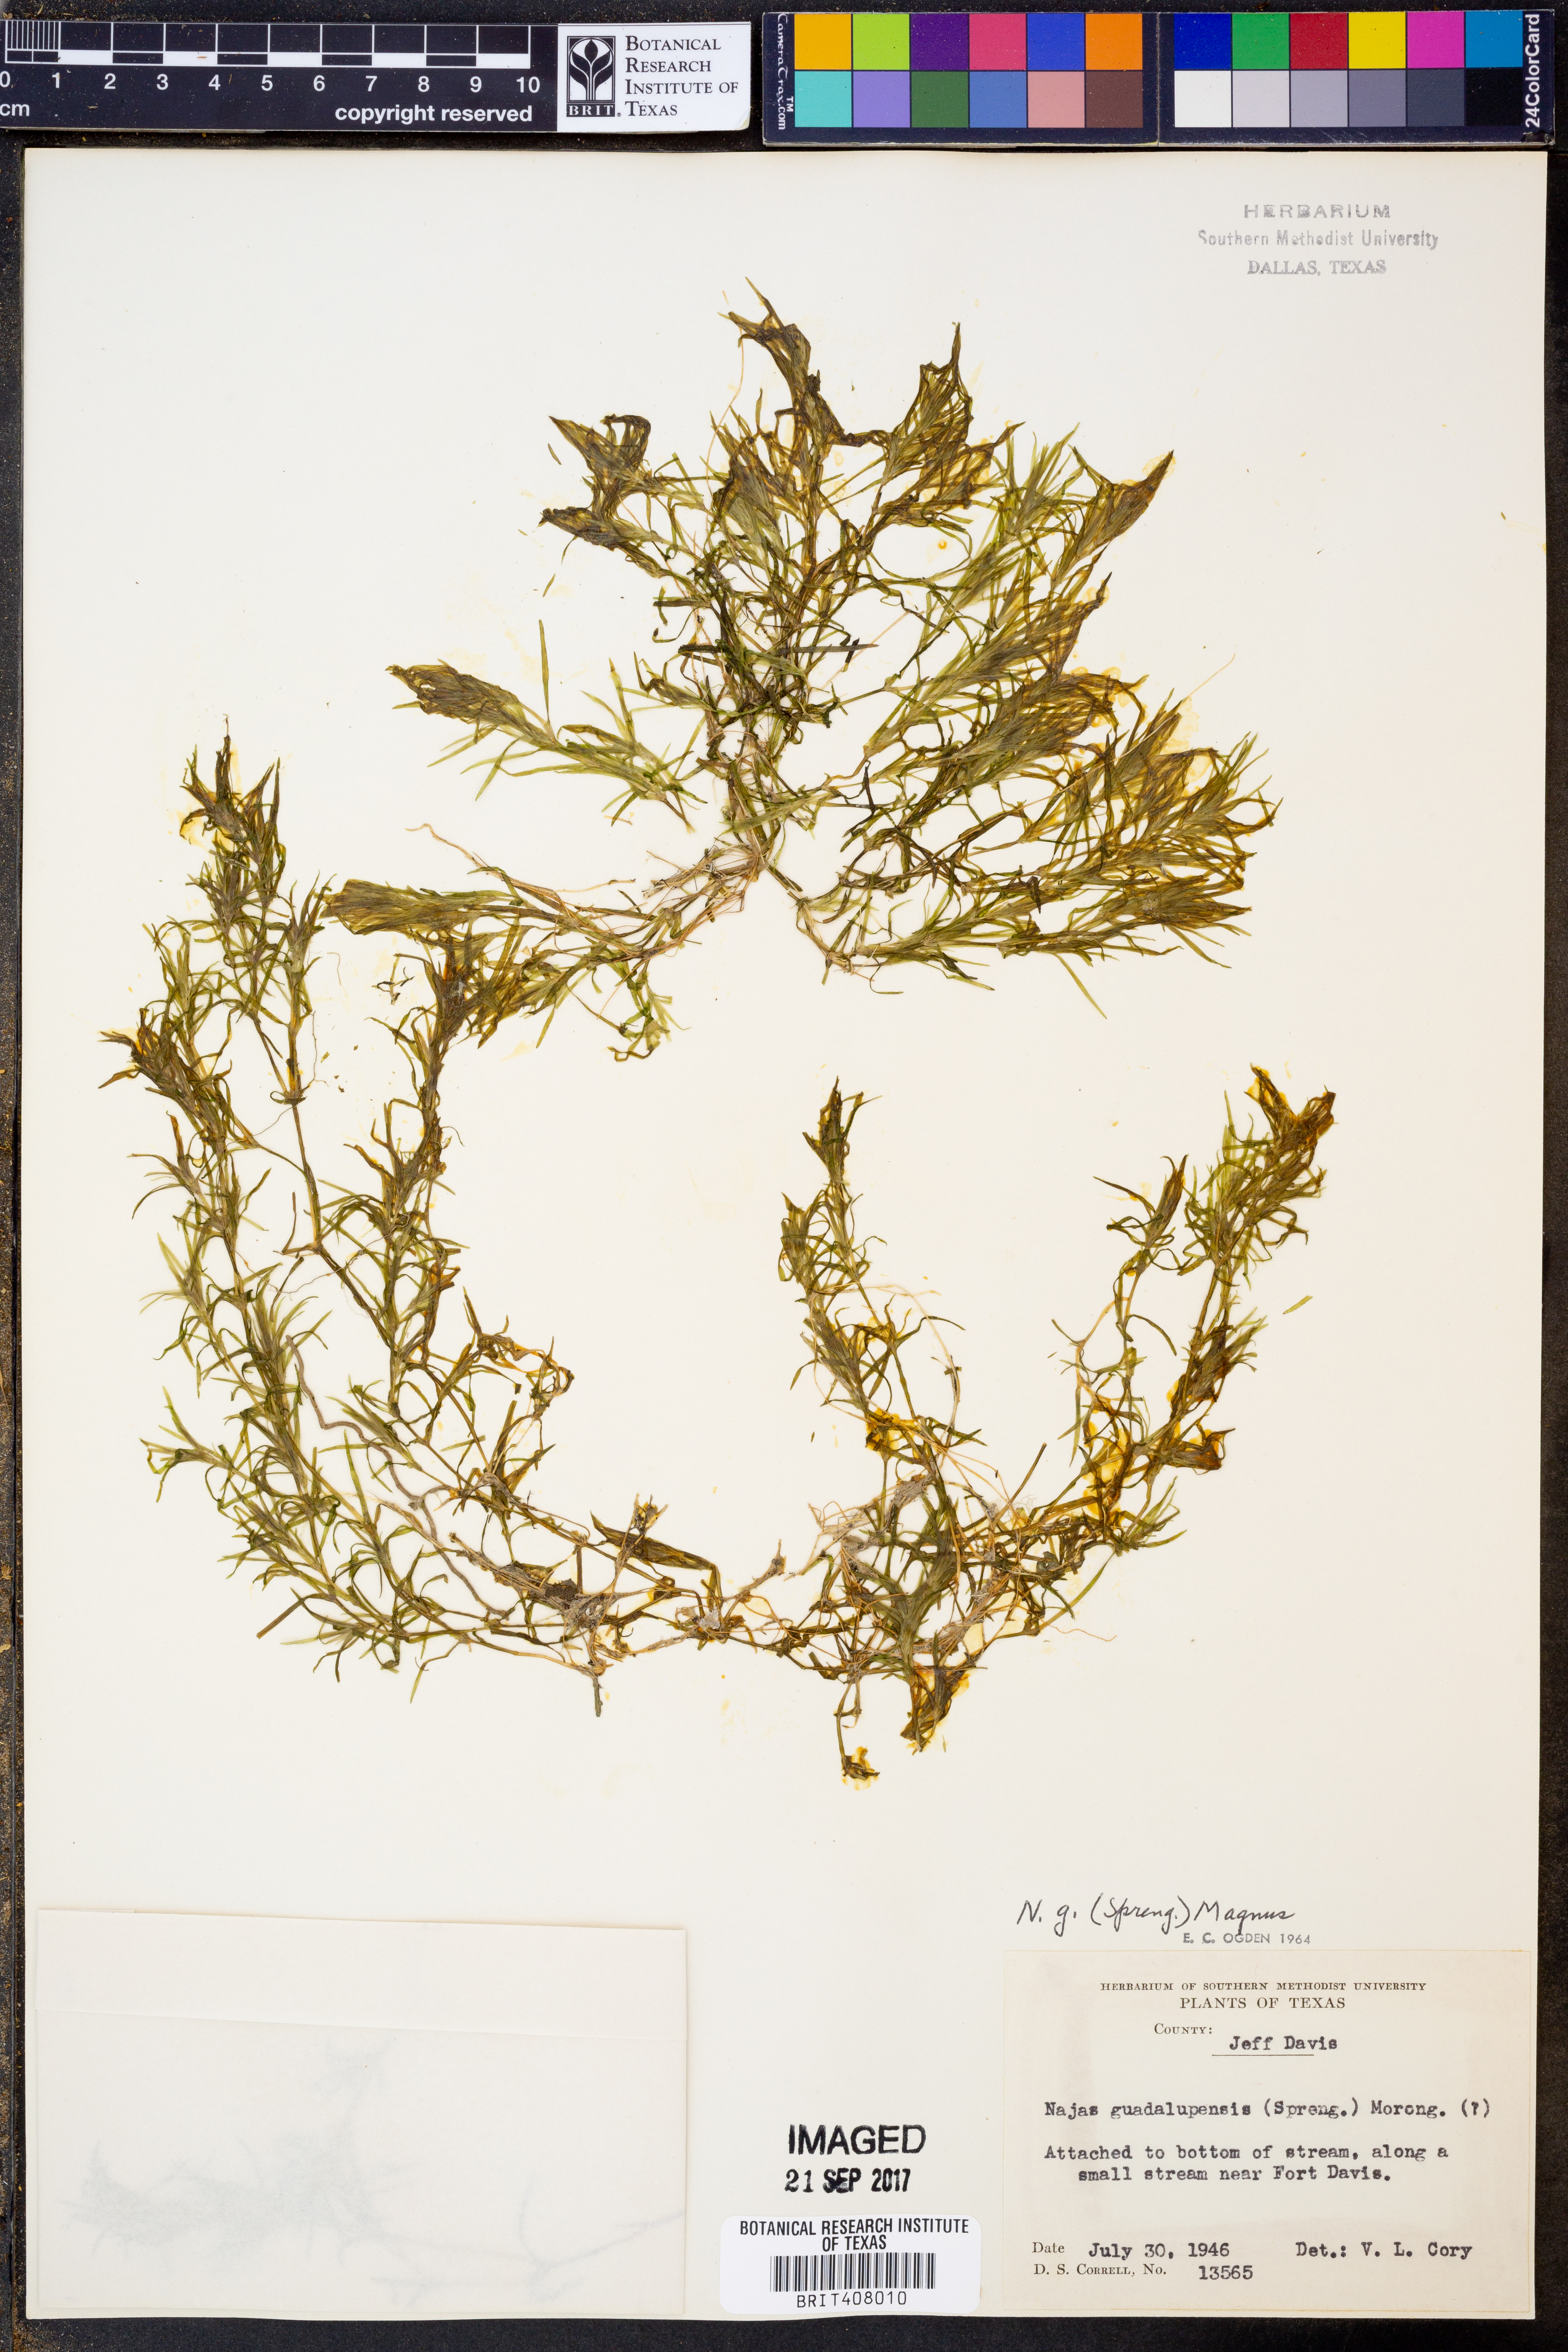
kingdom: Plantae
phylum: Tracheophyta
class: Liliopsida
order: Alismatales
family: Hydrocharitaceae
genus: Najas
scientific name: Najas guadalupensis
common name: Southern naiad
